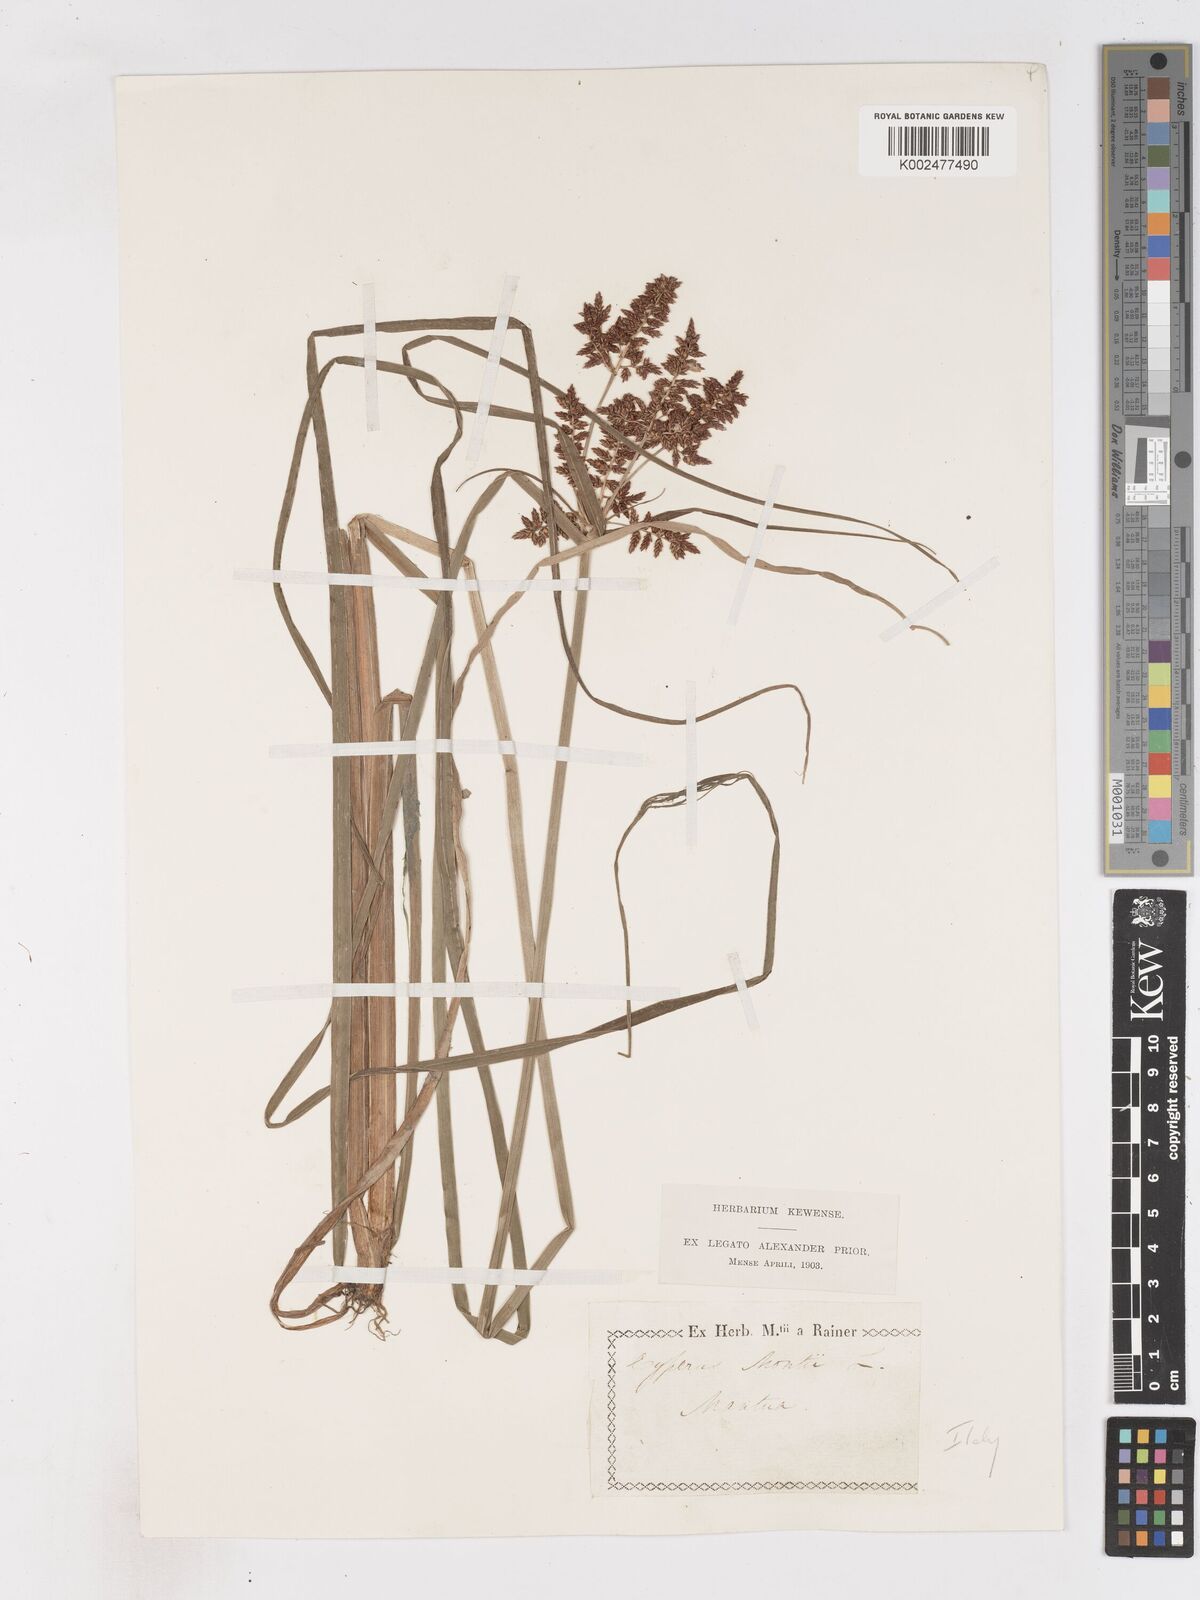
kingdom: Plantae
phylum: Tracheophyta
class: Liliopsida
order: Poales
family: Cyperaceae
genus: Cyperus
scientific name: Cyperus serotinus
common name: Tidalmarsh flatsedge
